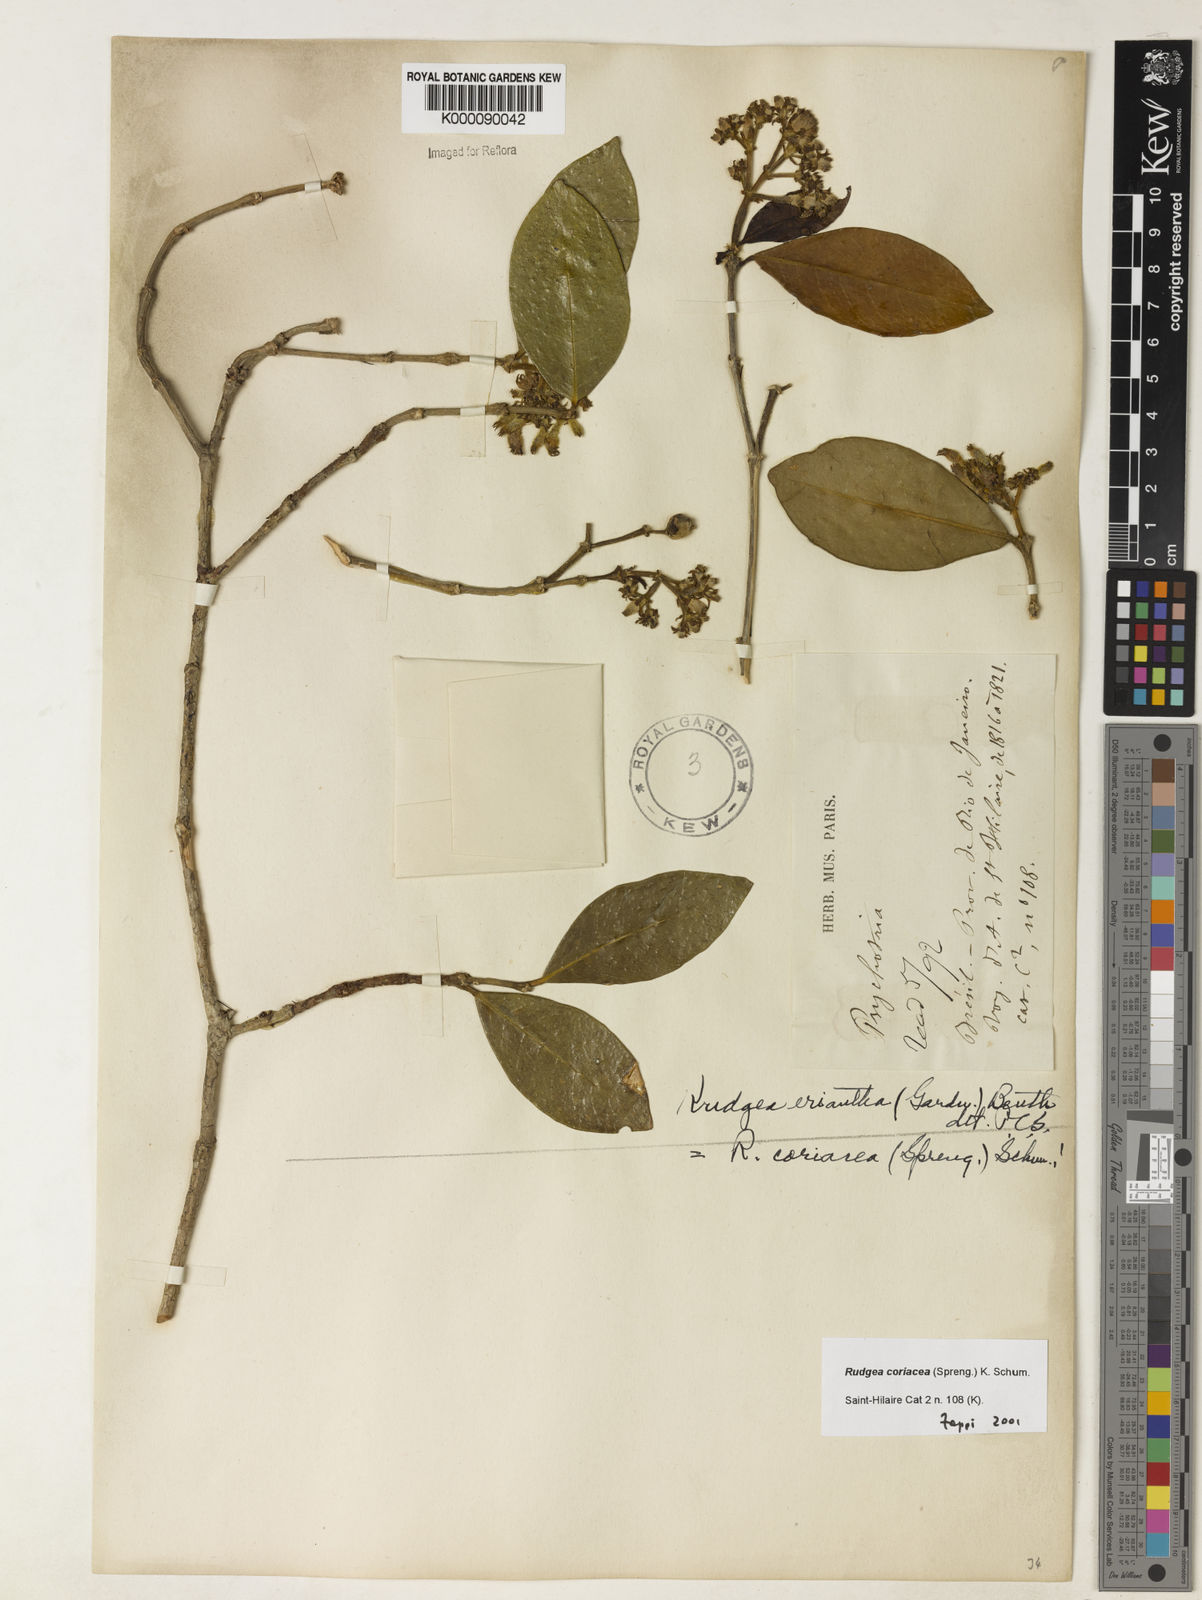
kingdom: Plantae
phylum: Tracheophyta
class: Magnoliopsida
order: Gentianales
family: Rubiaceae
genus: Rudgea
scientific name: Rudgea coriacea
